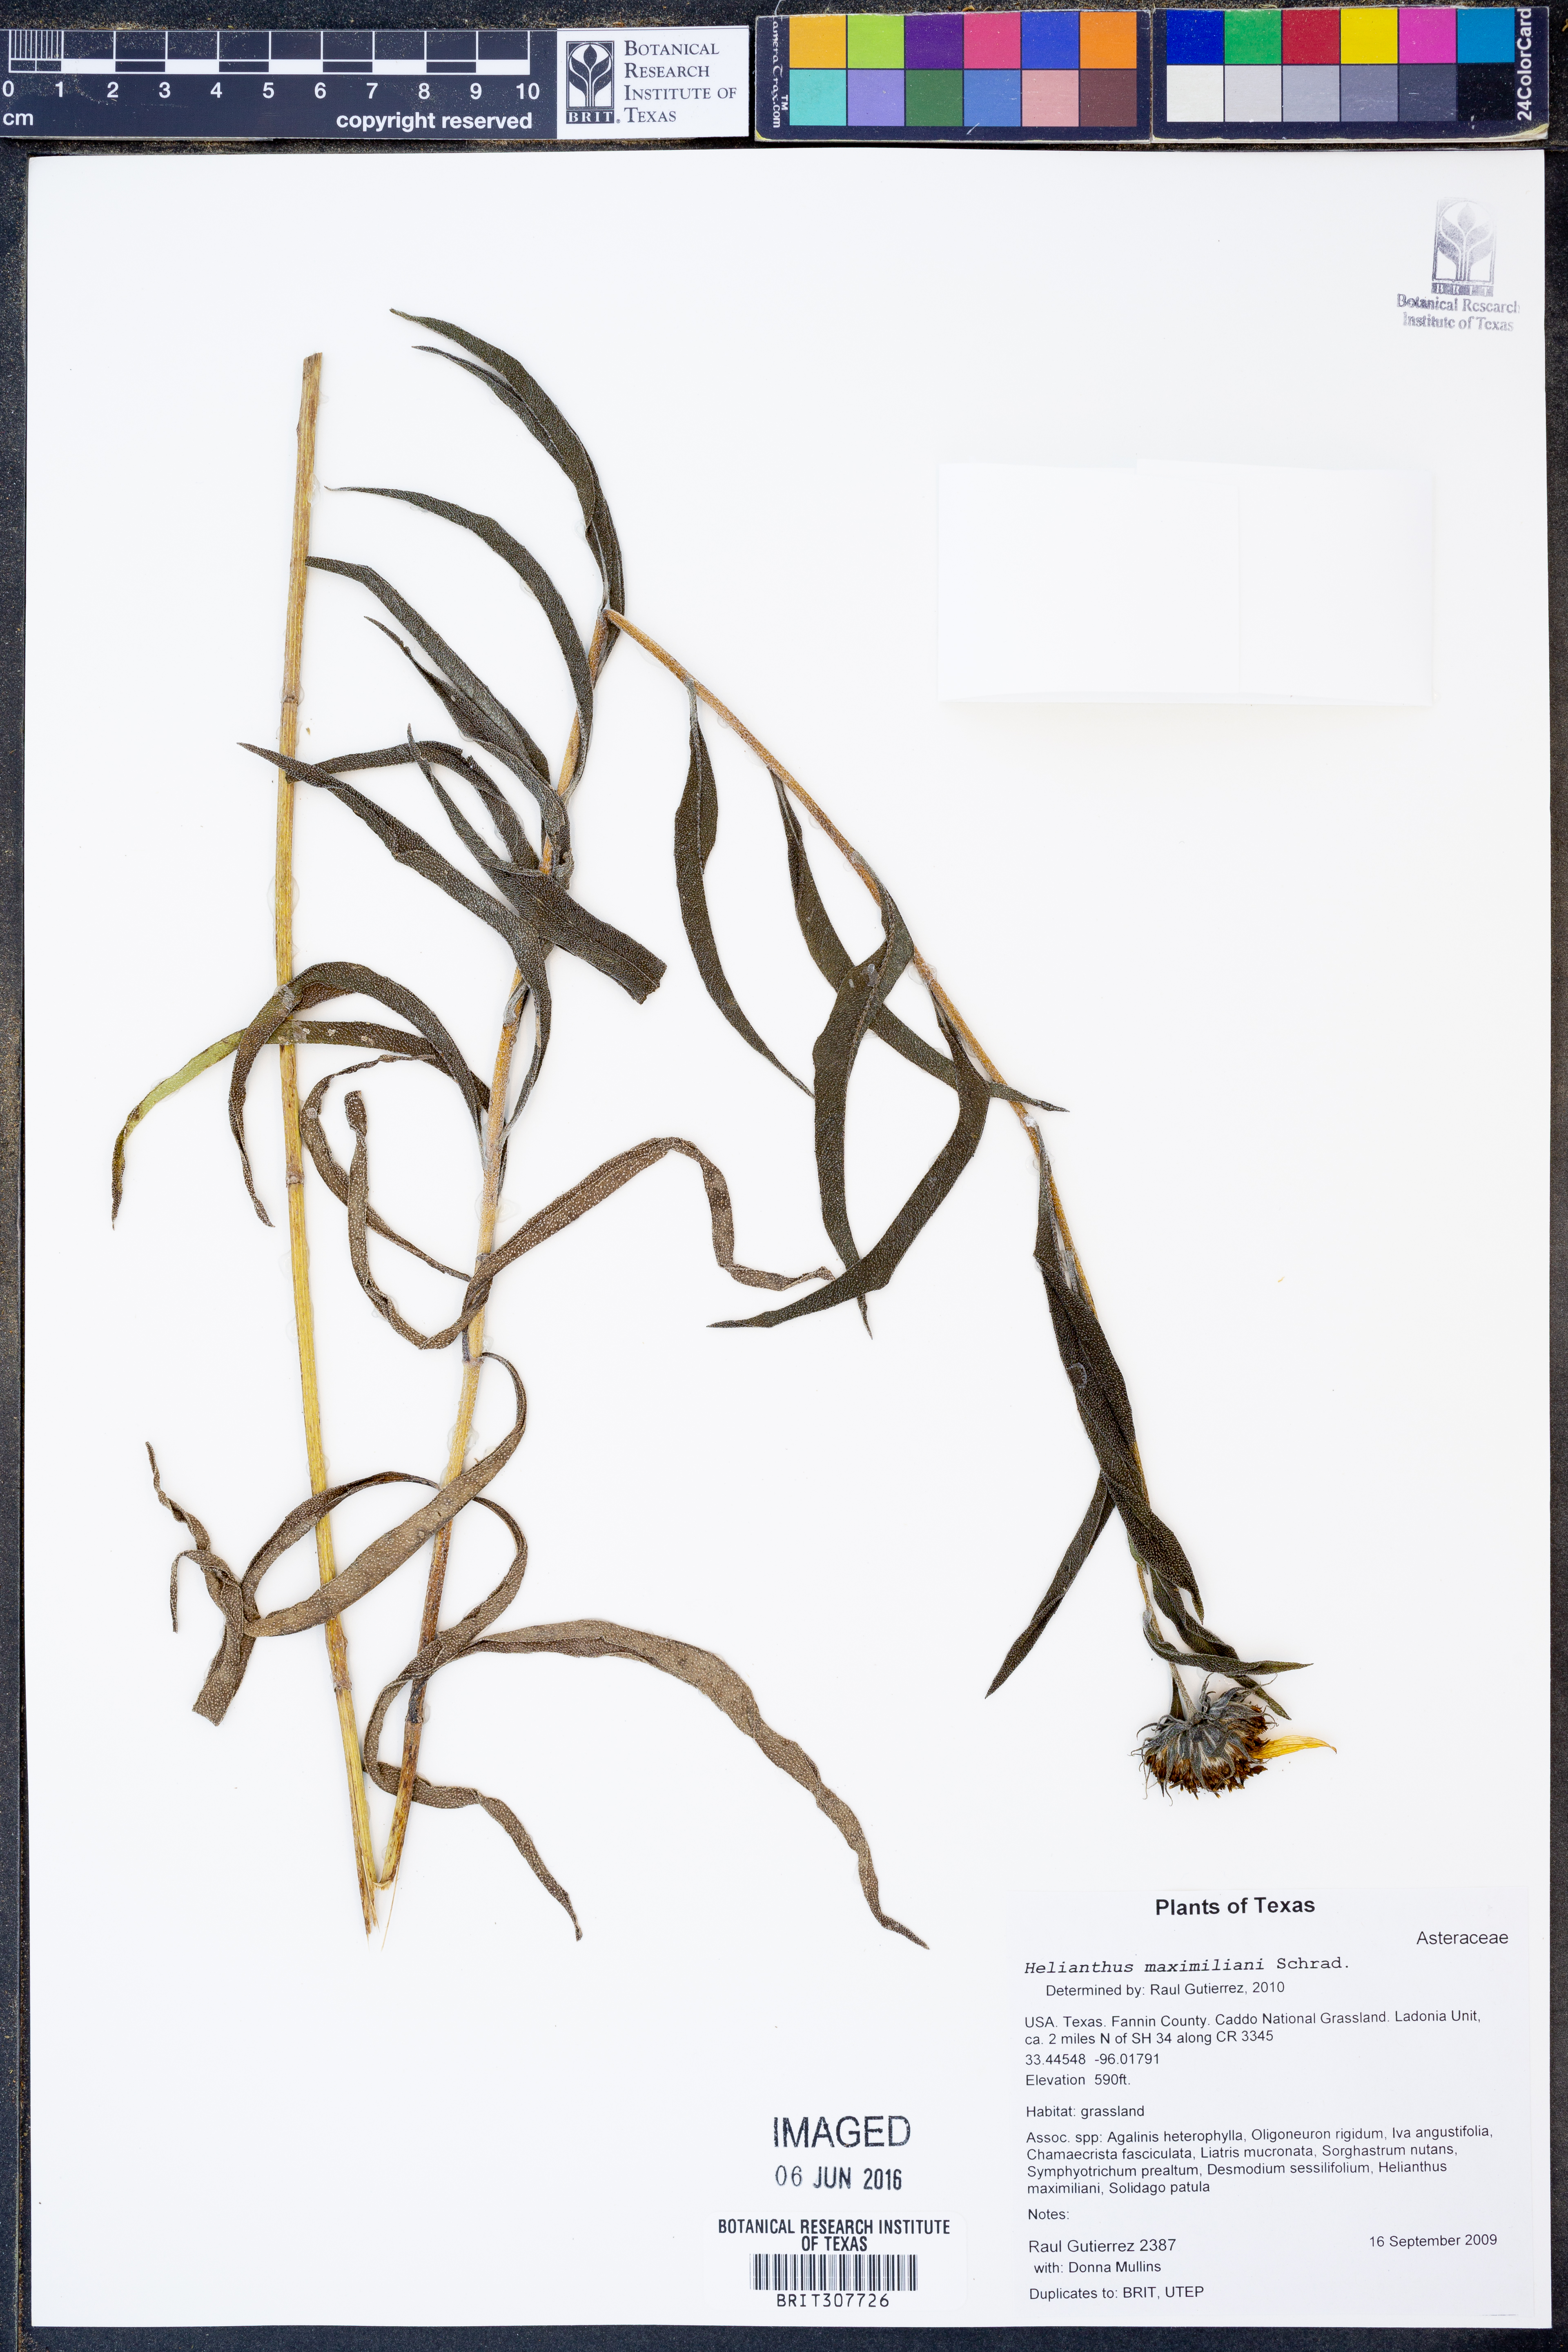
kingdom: Plantae
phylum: Tracheophyta
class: Magnoliopsida
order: Asterales
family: Asteraceae
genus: Helianthus
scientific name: Helianthus maximiliani
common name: Maximilian's sunflower
